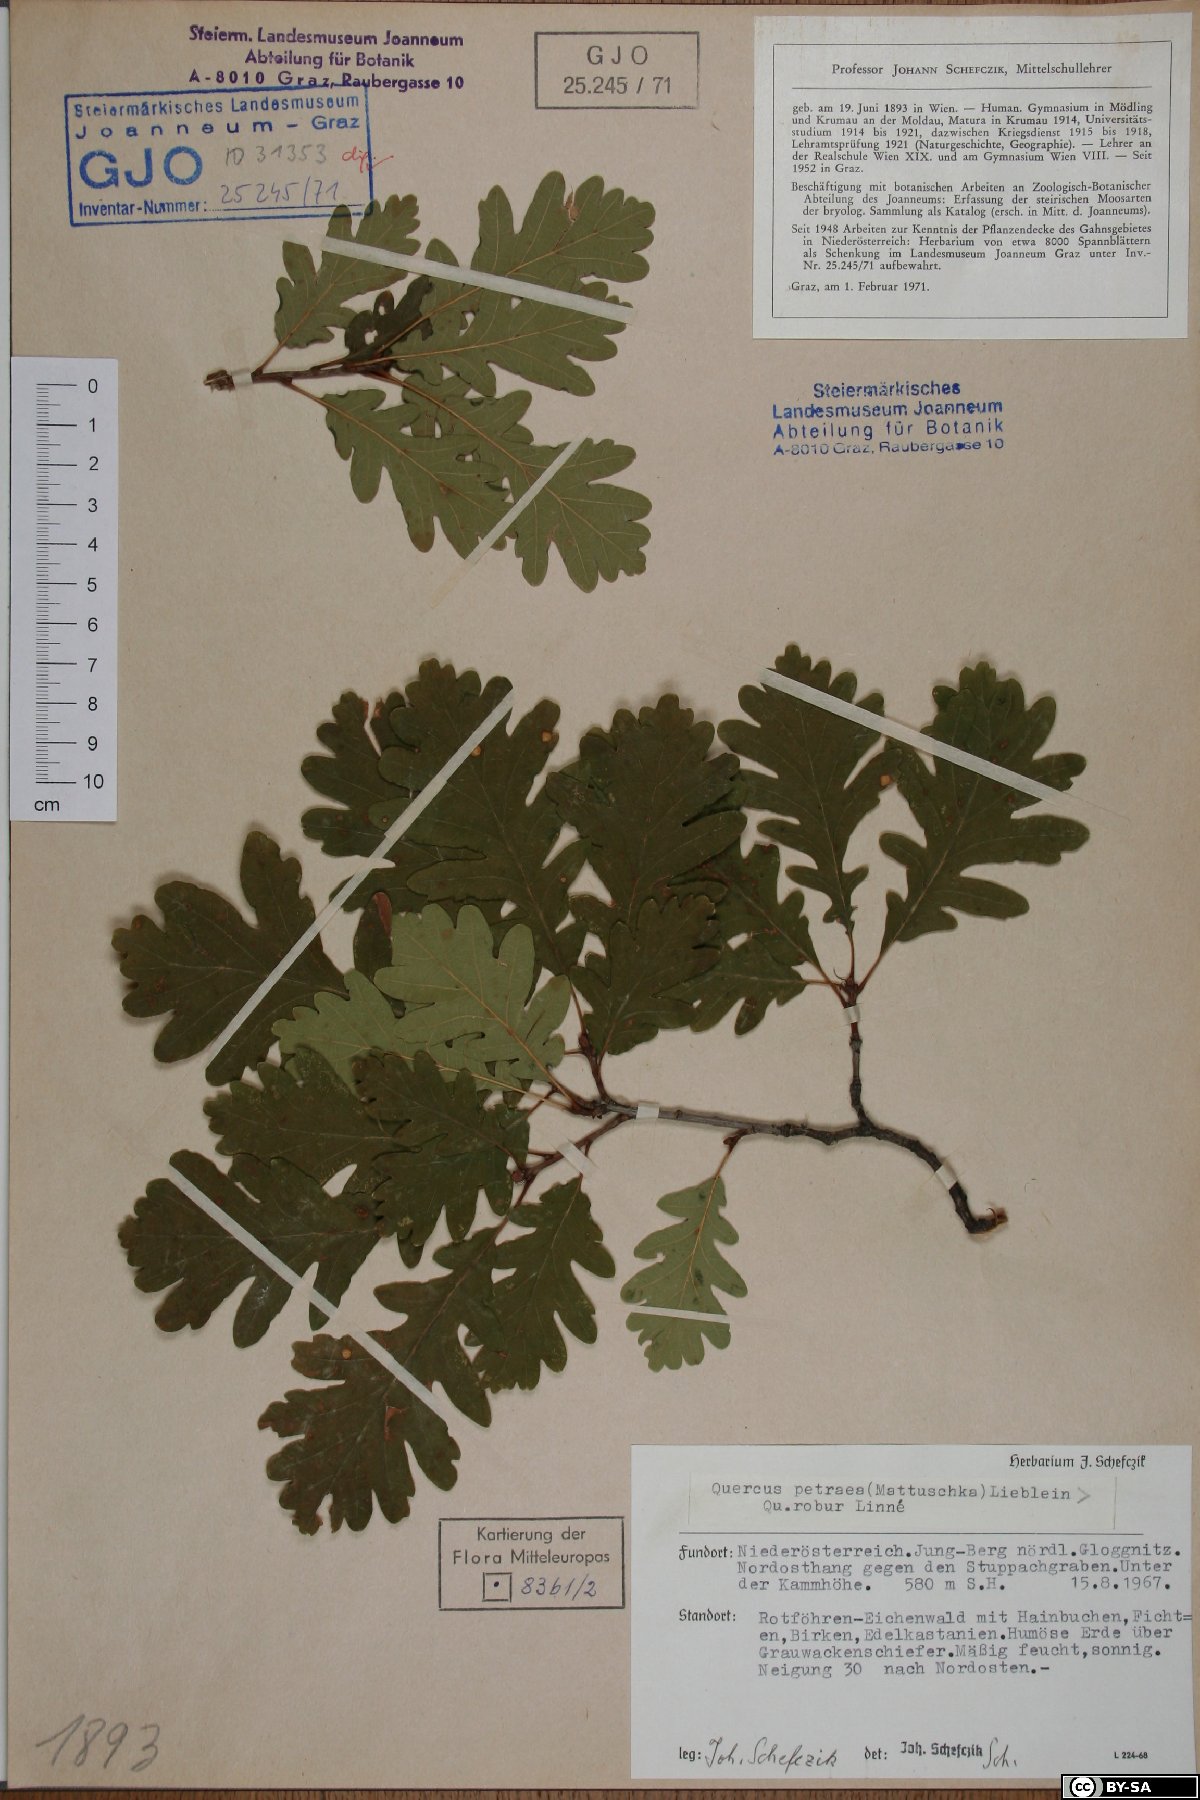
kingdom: Plantae
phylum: Tracheophyta
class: Magnoliopsida
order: Fagales
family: Fagaceae
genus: Quercus
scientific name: Quercus petraea
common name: Sessile oak
